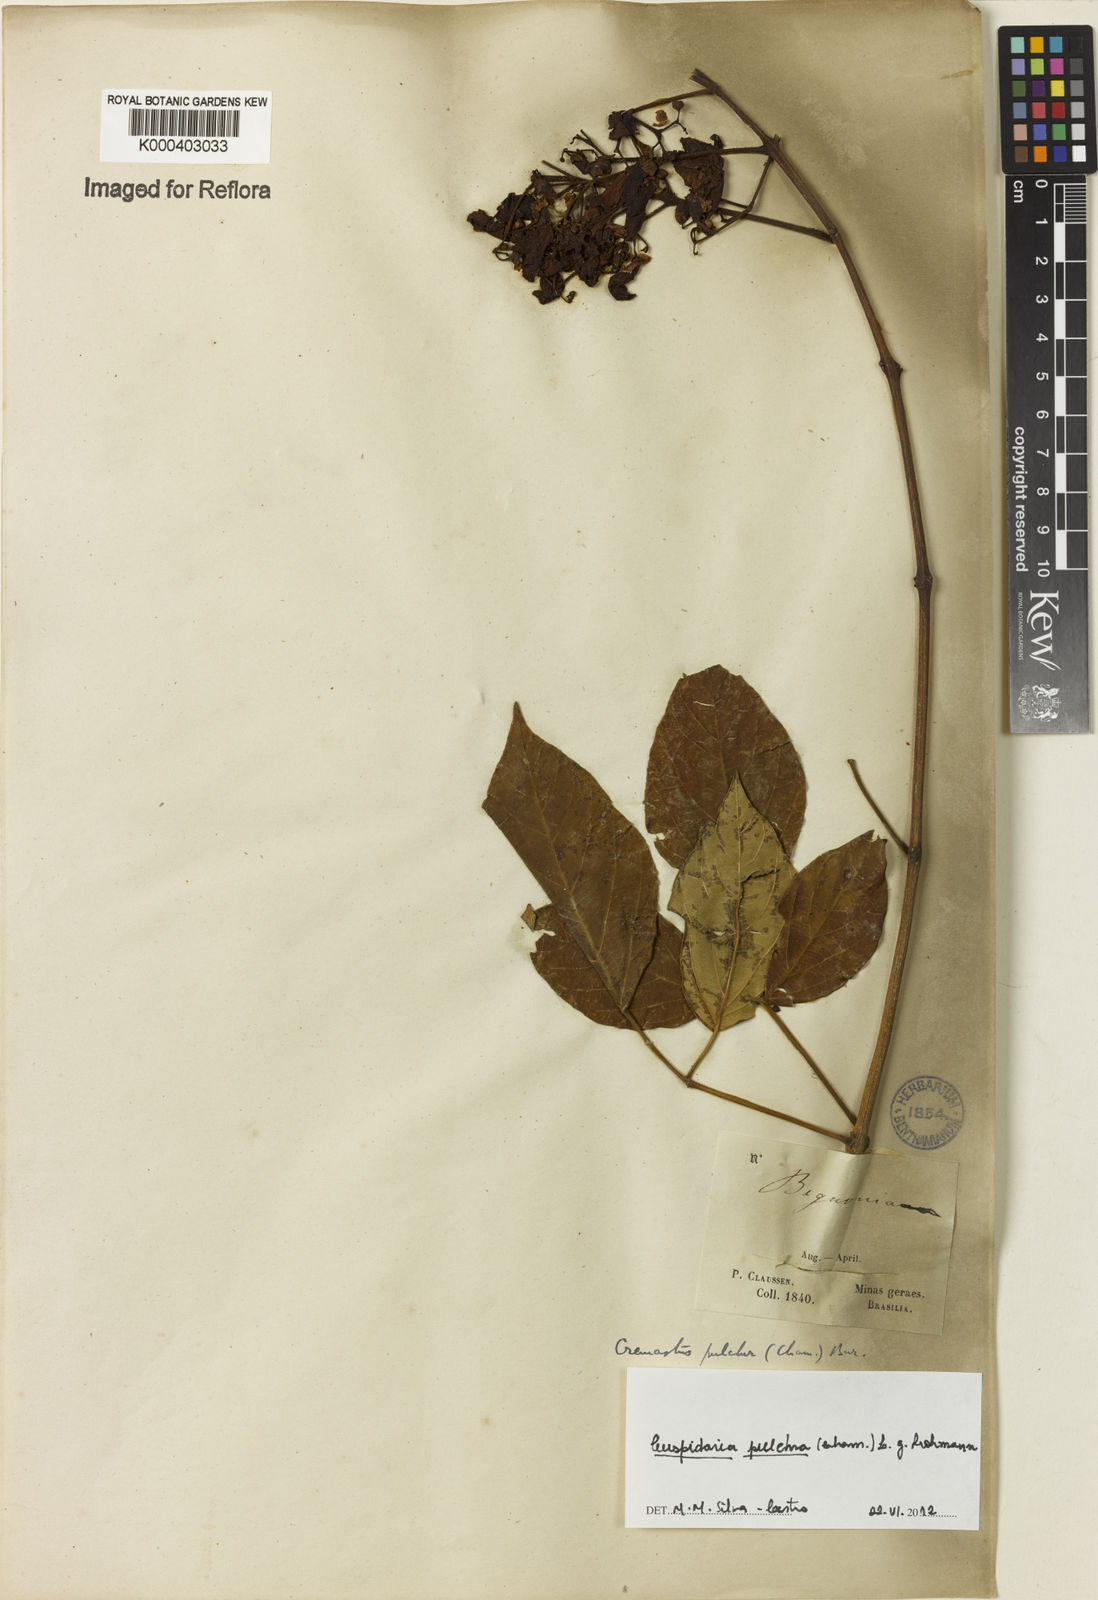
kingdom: Plantae
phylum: Tracheophyta
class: Magnoliopsida
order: Lamiales
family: Bignoniaceae
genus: Cuspidaria
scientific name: Cuspidaria pulchra
